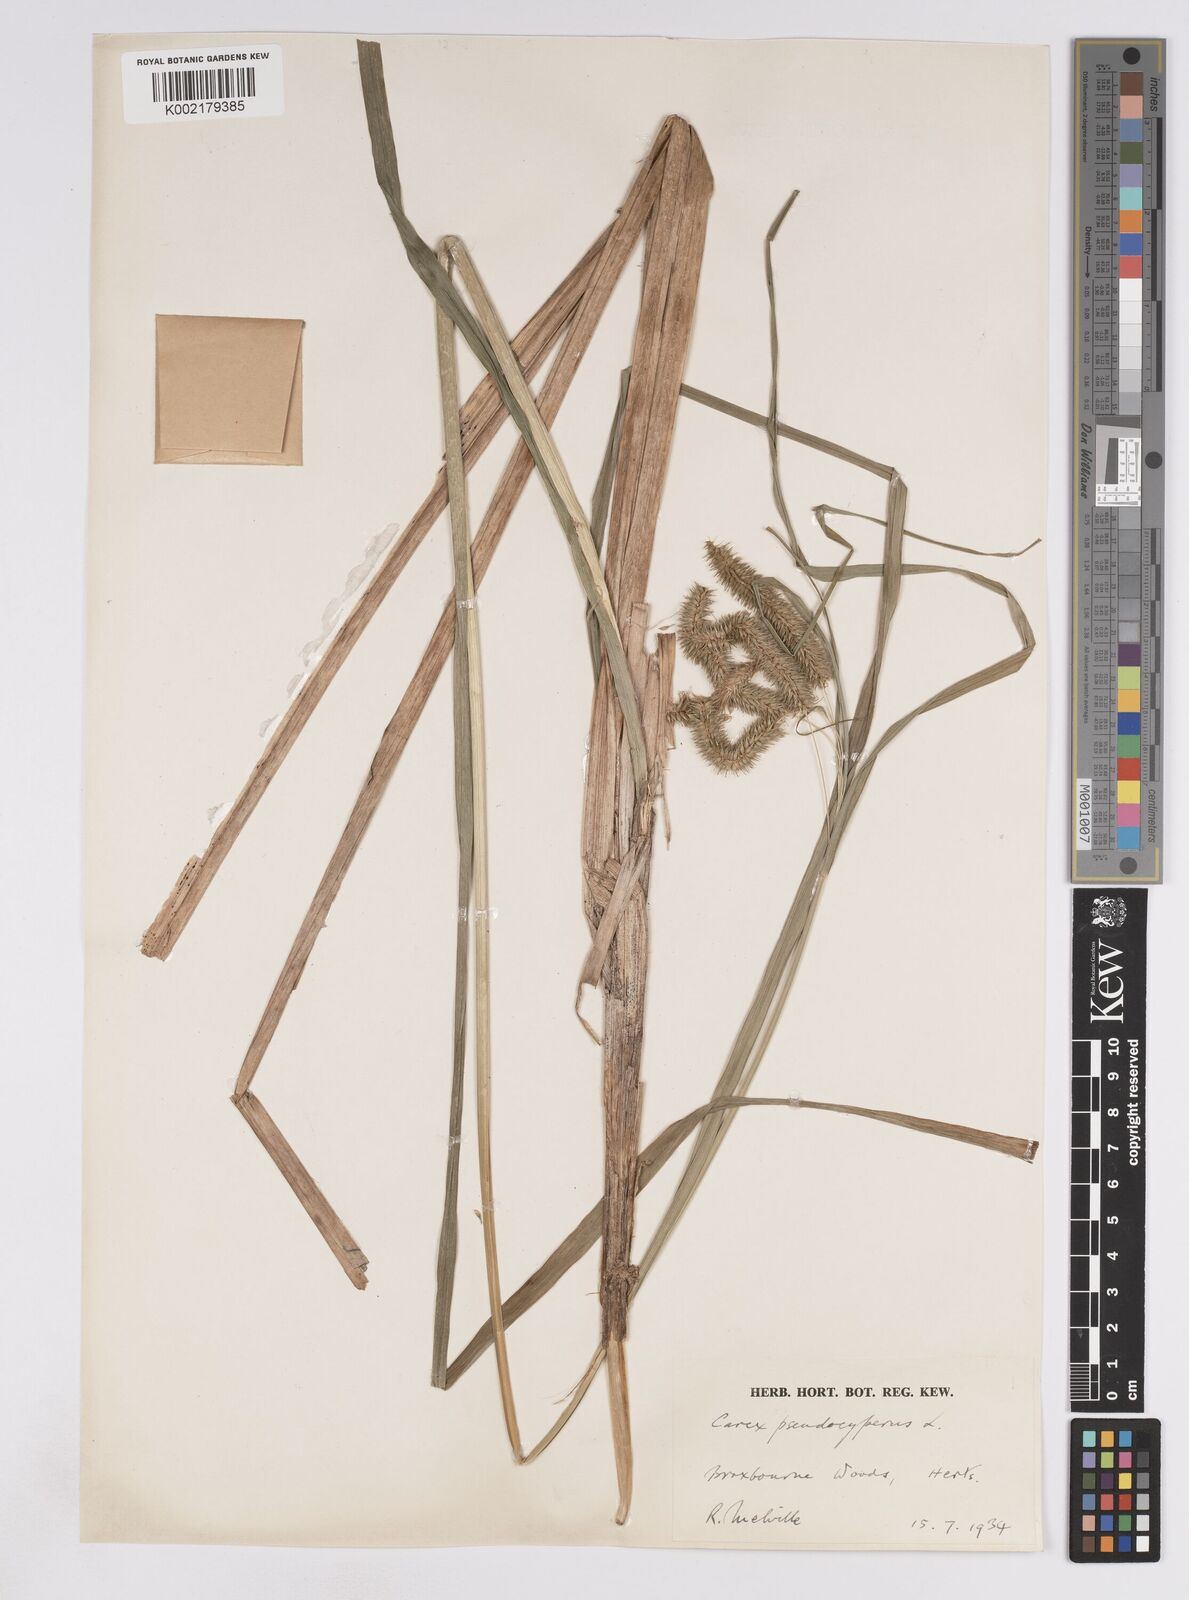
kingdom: Plantae
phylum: Tracheophyta
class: Liliopsida
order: Poales
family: Cyperaceae
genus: Carex
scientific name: Carex pseudocyperus
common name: Cyperus sedge
